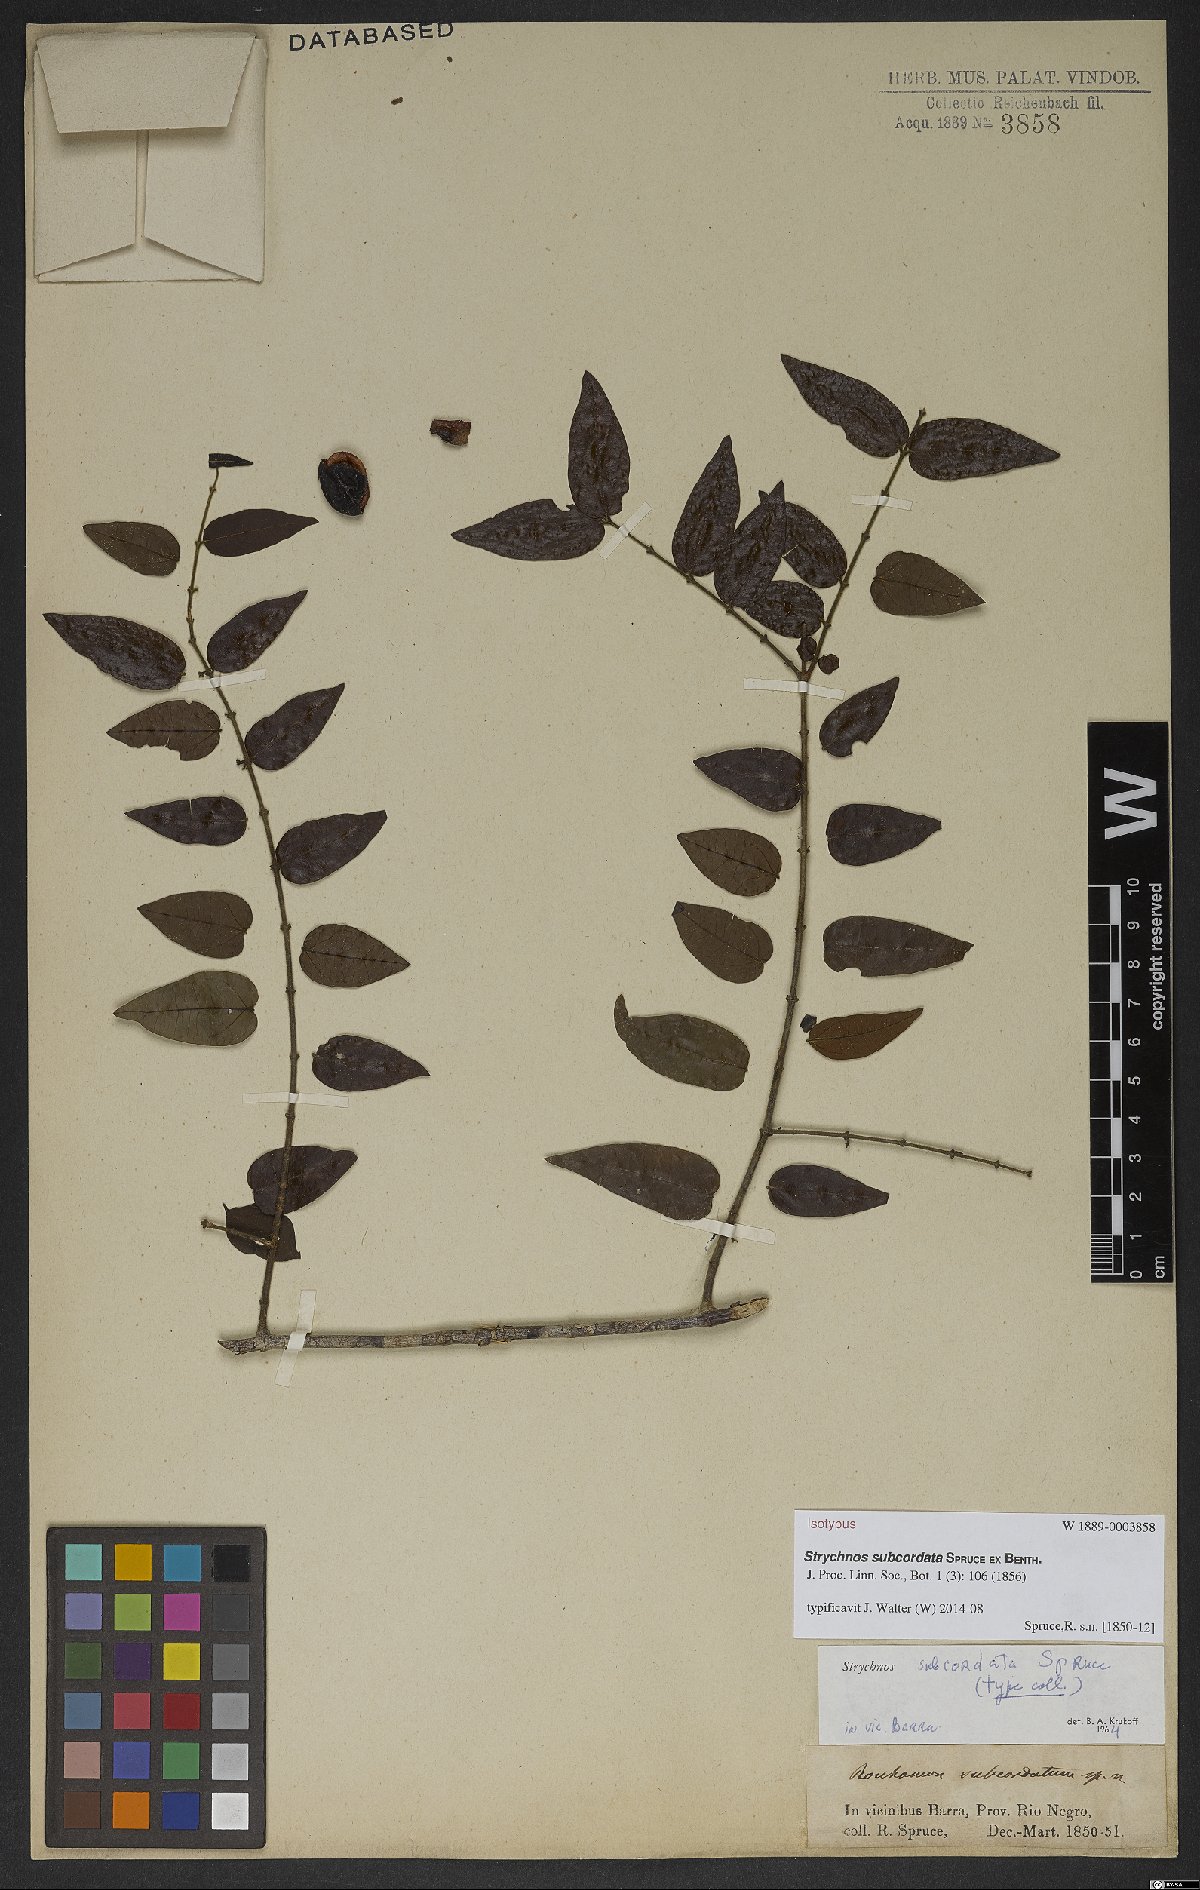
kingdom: Plantae
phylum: Tracheophyta
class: Magnoliopsida
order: Gentianales
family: Loganiaceae
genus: Strychnos
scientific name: Strychnos subcordata
